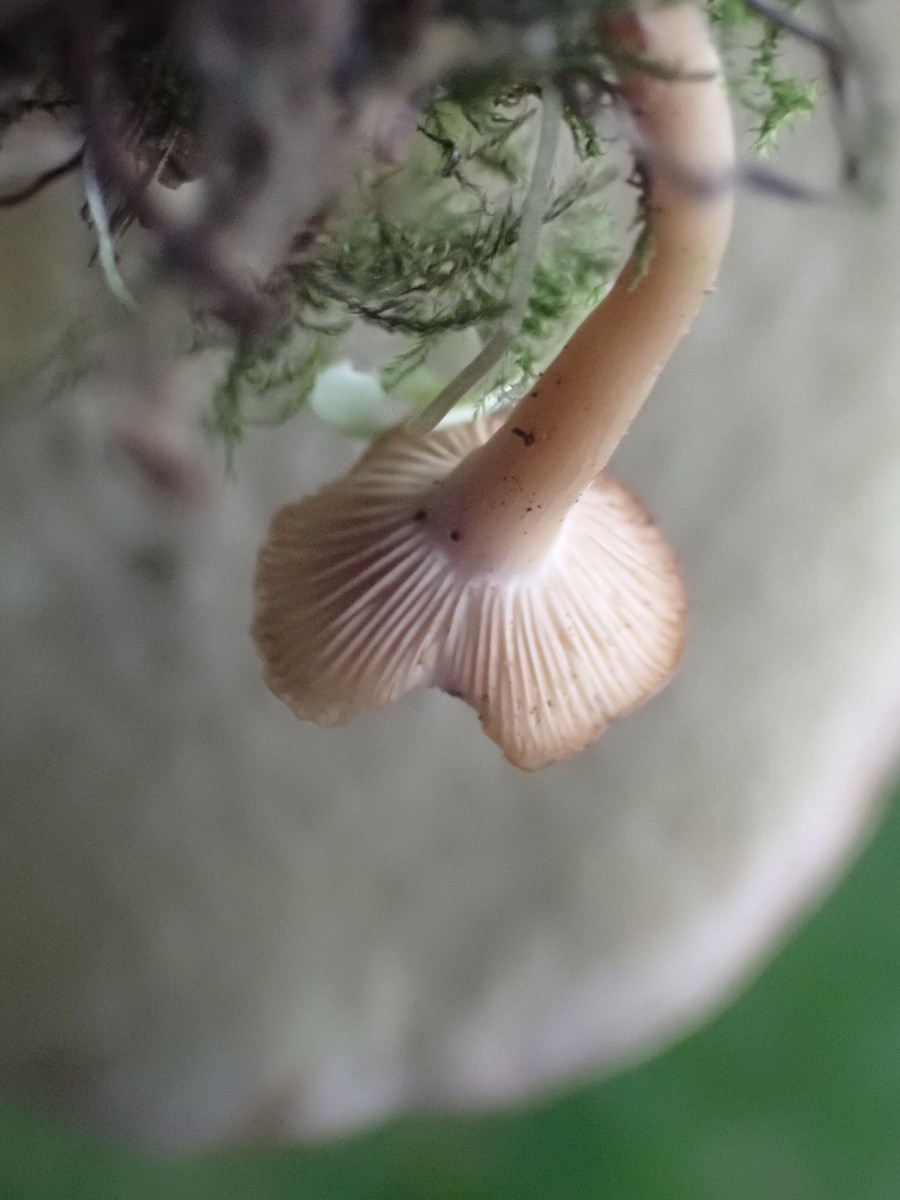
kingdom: Fungi
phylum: Basidiomycota
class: Agaricomycetes
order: Agaricales
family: Tricholomataceae
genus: Clitocybe
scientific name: Clitocybe
